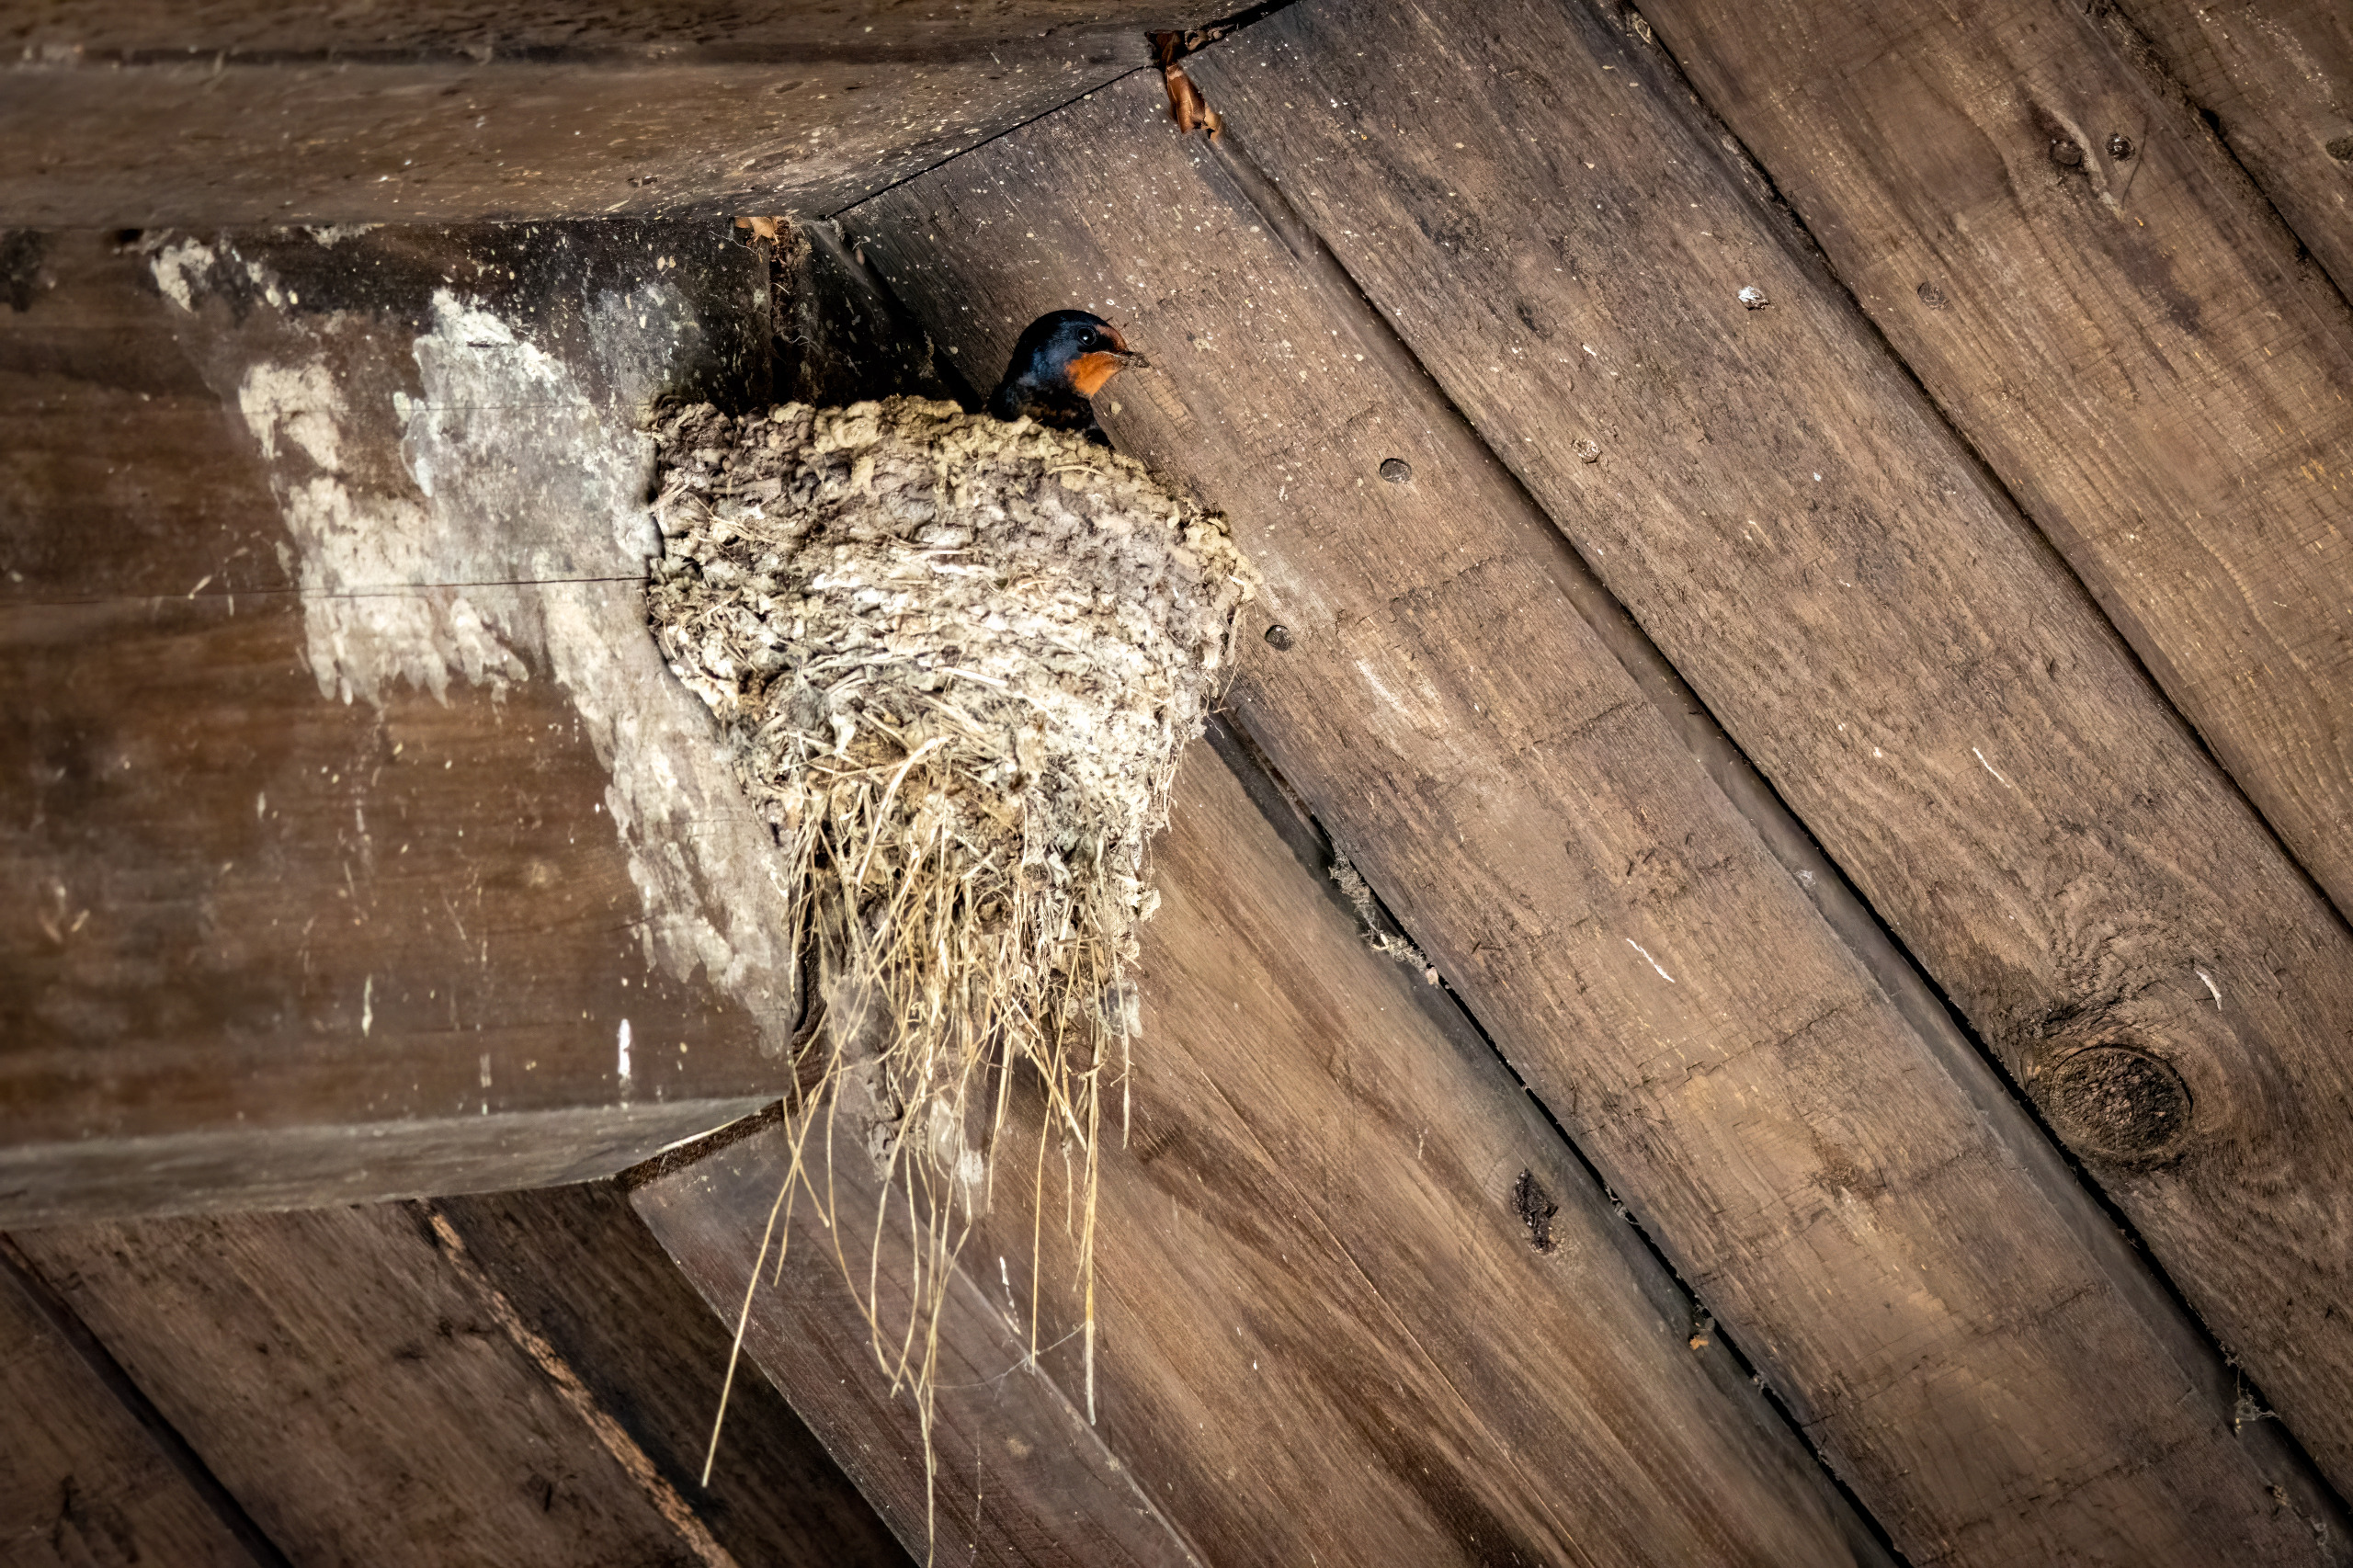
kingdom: Animalia
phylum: Chordata
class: Aves
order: Passeriformes
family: Hirundinidae
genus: Hirundo
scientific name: Hirundo rustica
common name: Landsvale
